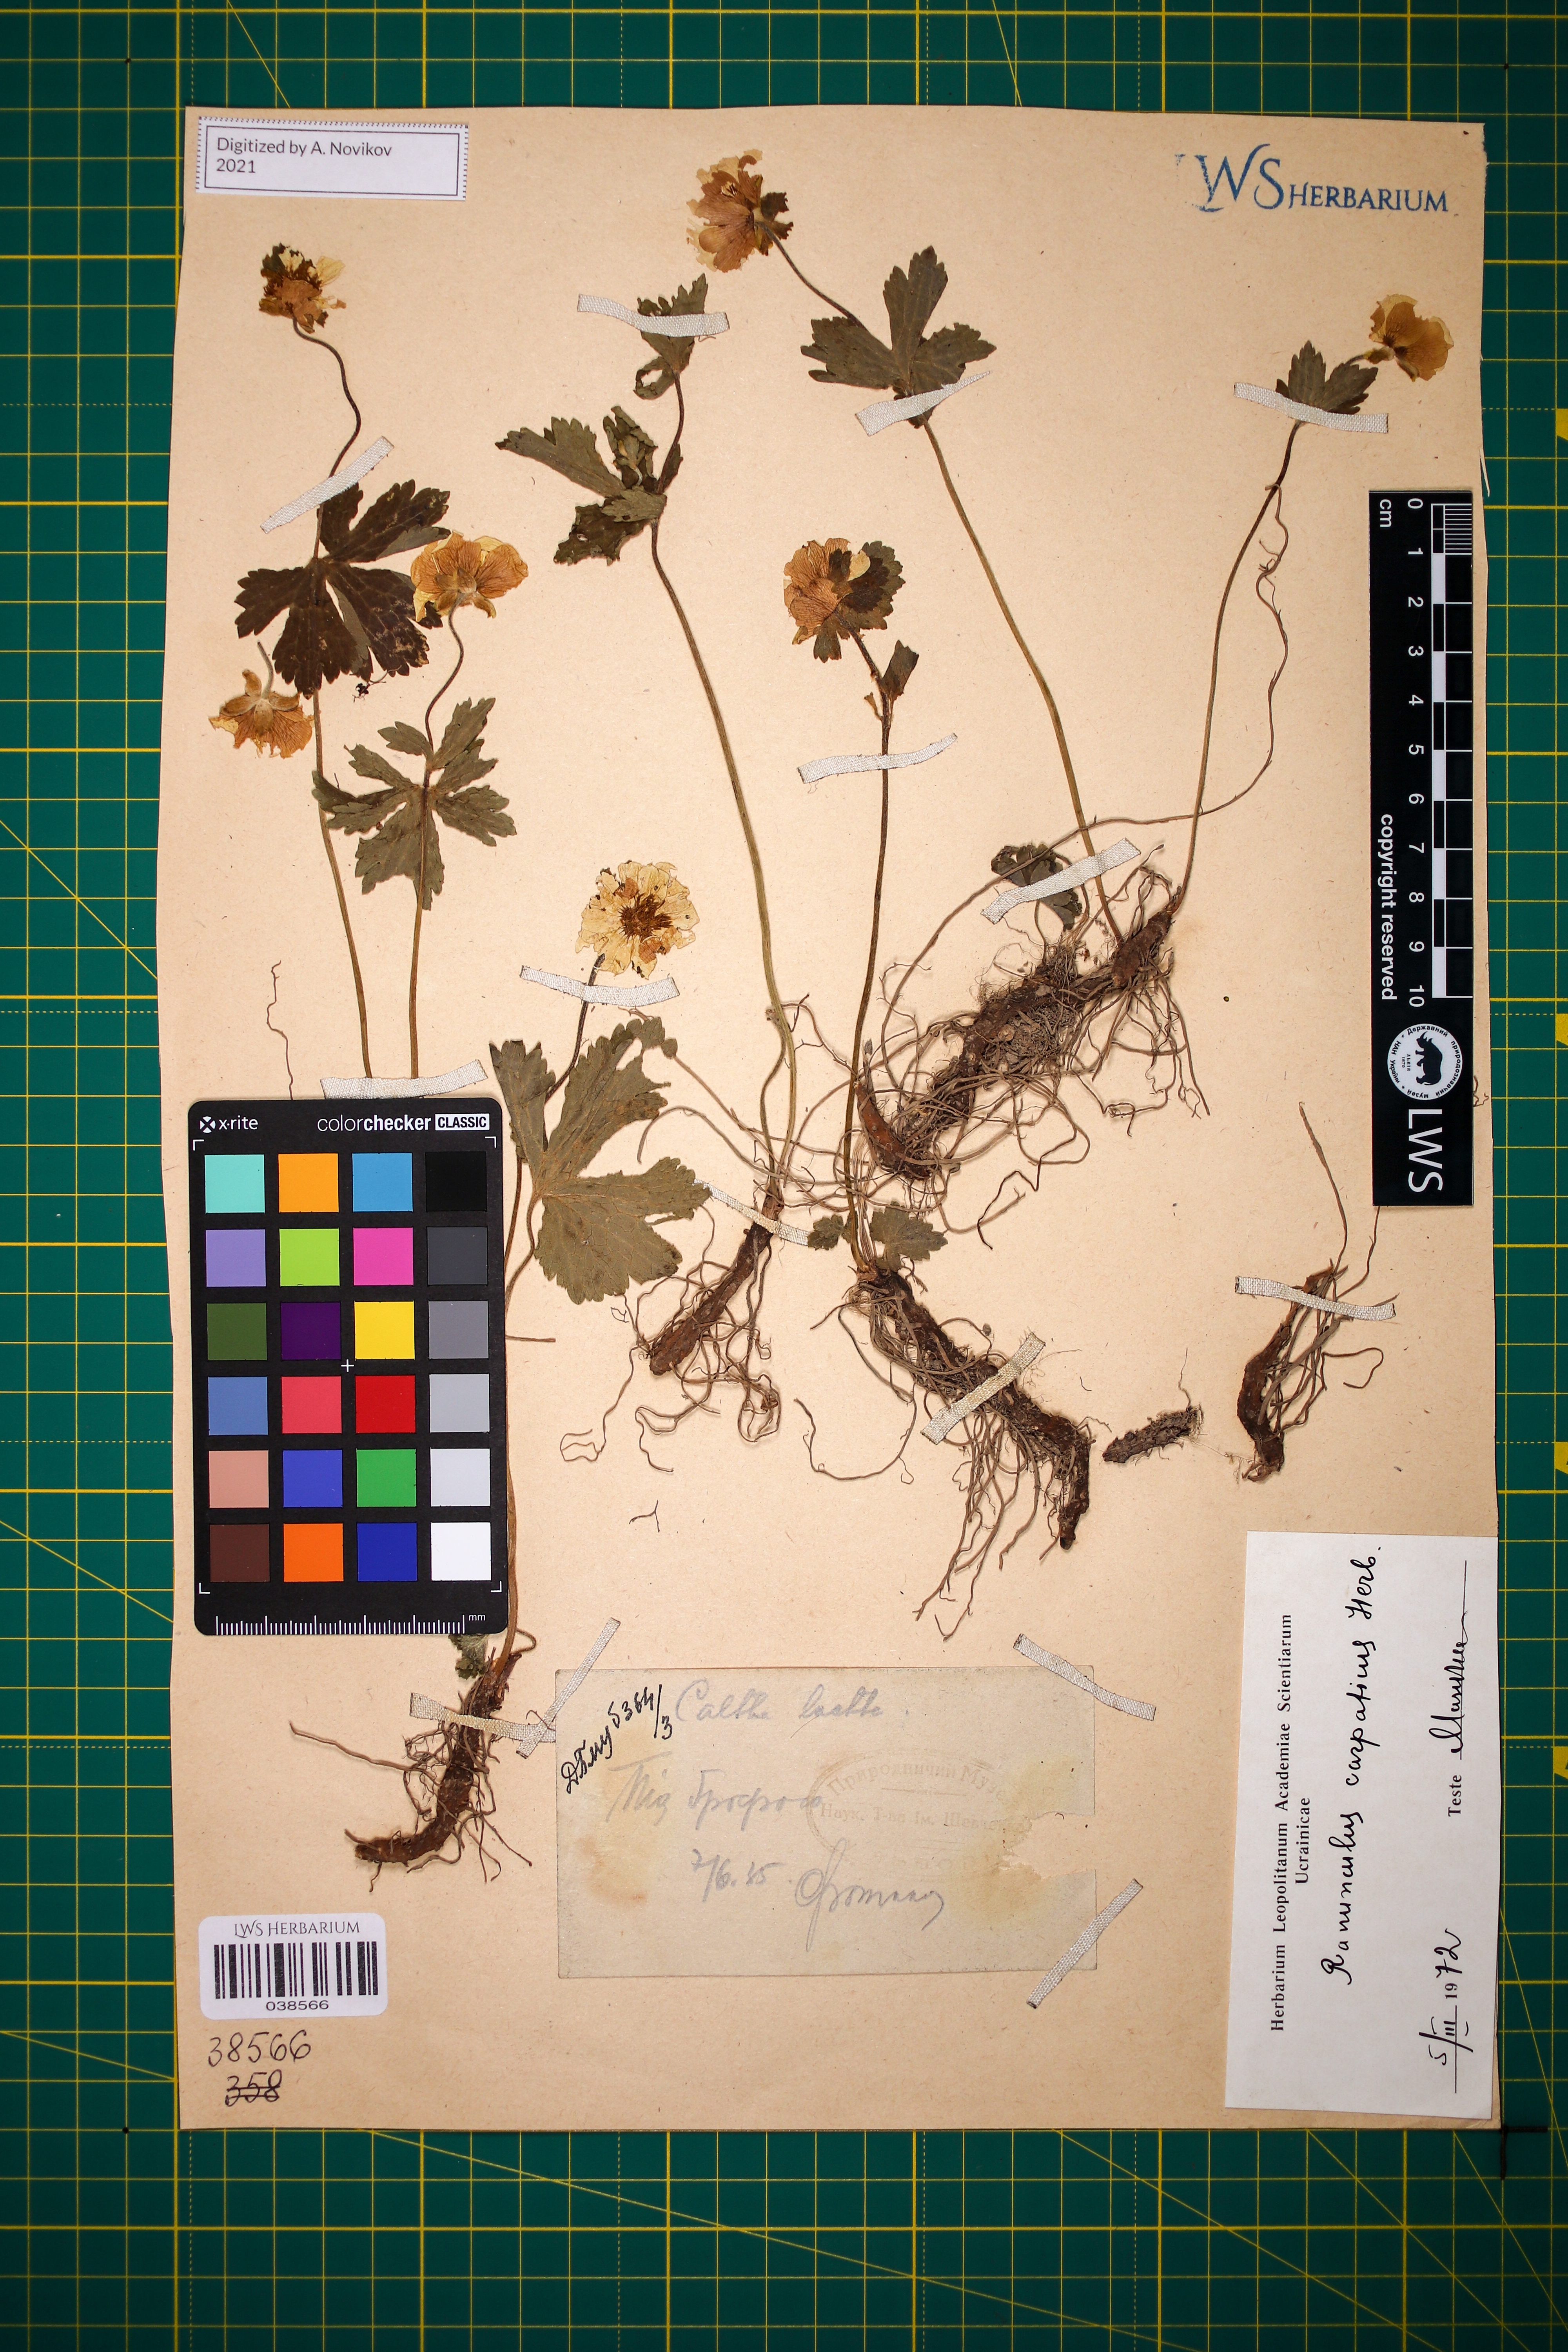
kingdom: Plantae
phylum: Tracheophyta
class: Magnoliopsida
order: Ranunculales
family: Ranunculaceae
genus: Ranunculus
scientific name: Ranunculus carpaticus
